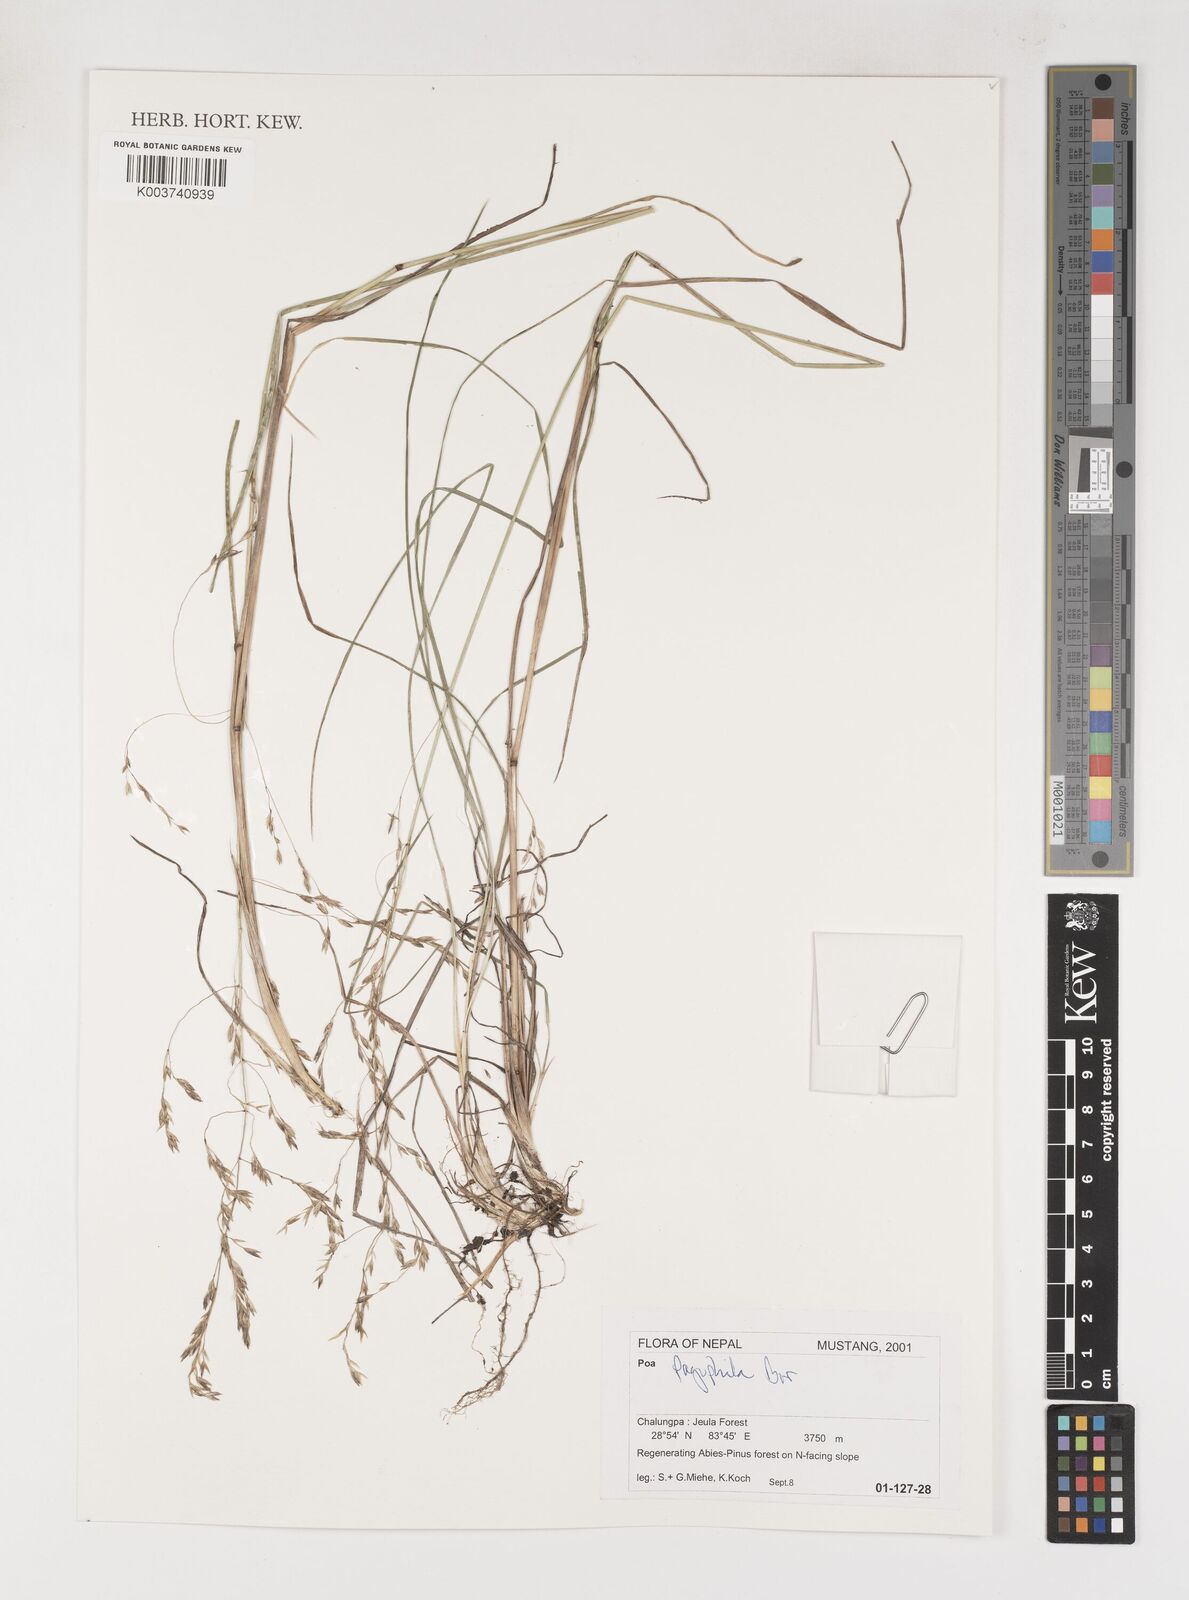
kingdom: Plantae
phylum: Tracheophyta
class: Liliopsida
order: Poales
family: Poaceae
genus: Poa
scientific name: Poa pagophila
